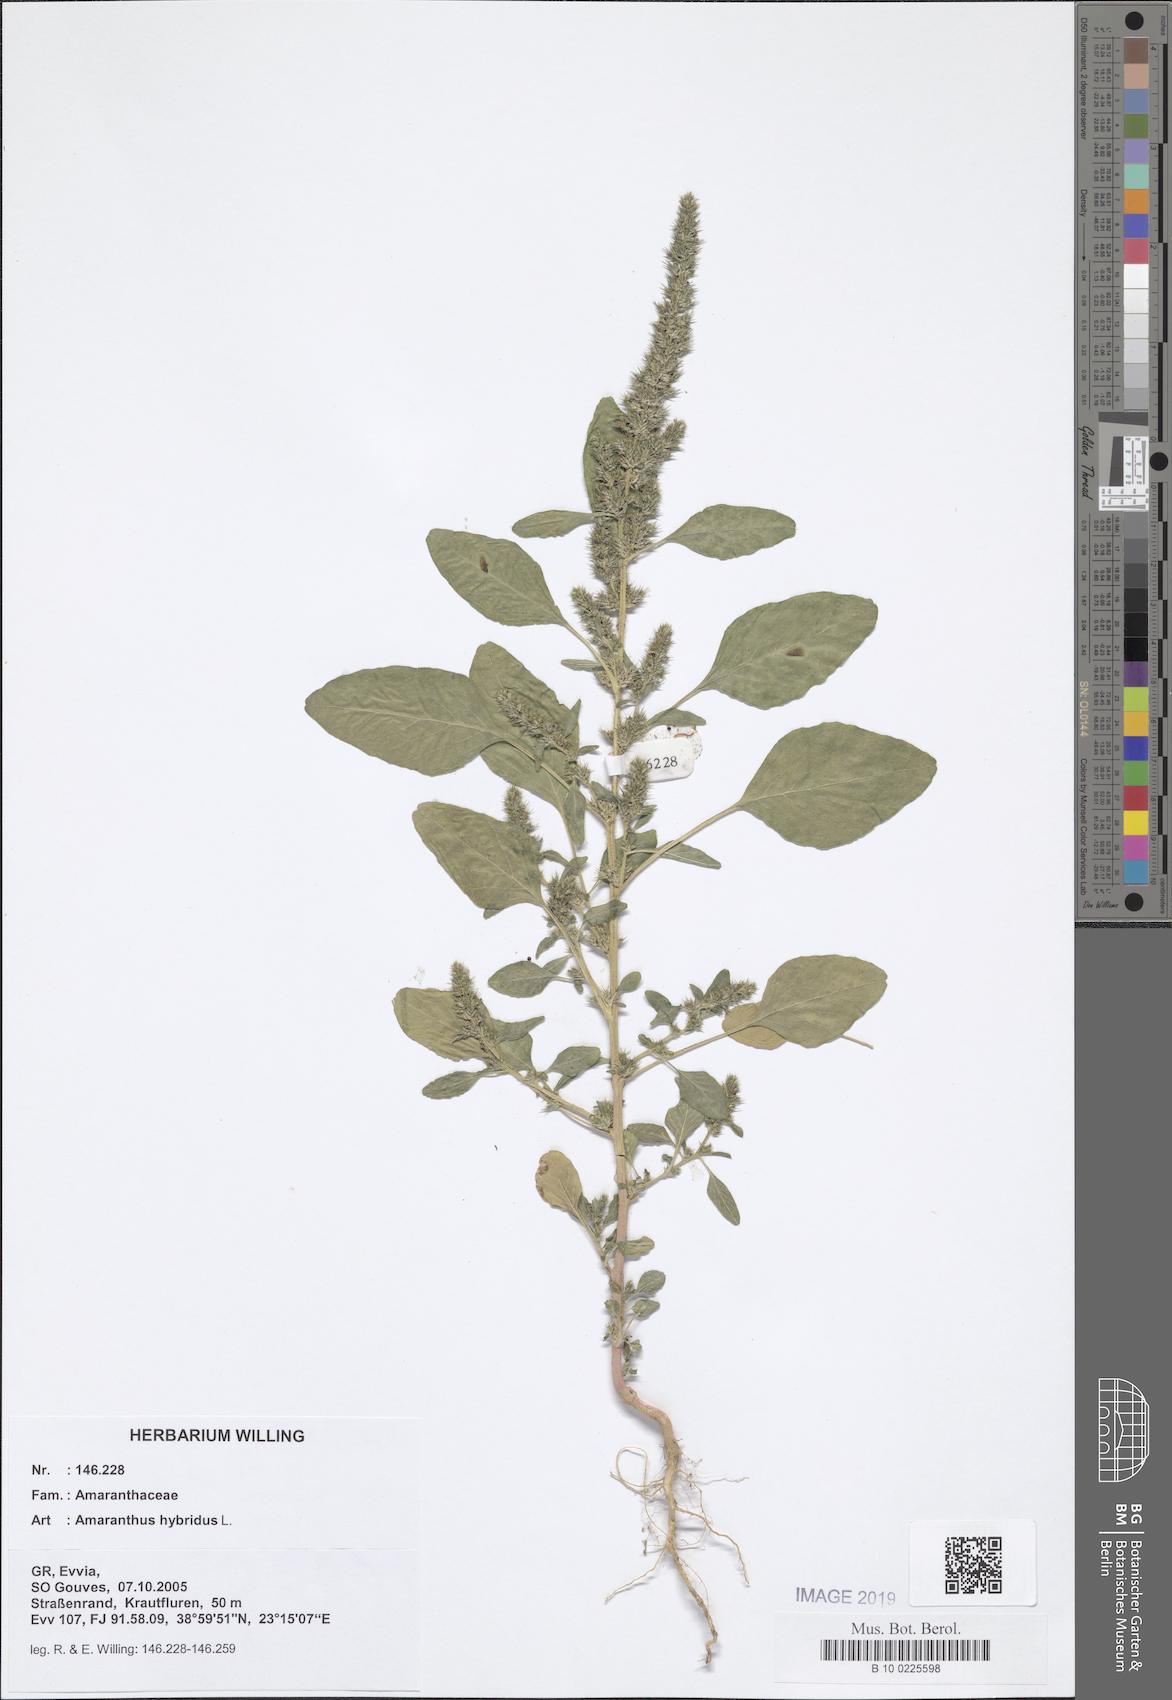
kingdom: Plantae
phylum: Tracheophyta
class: Magnoliopsida
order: Caryophyllales
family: Amaranthaceae
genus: Amaranthus
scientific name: Amaranthus hybridus
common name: Green amaranth
